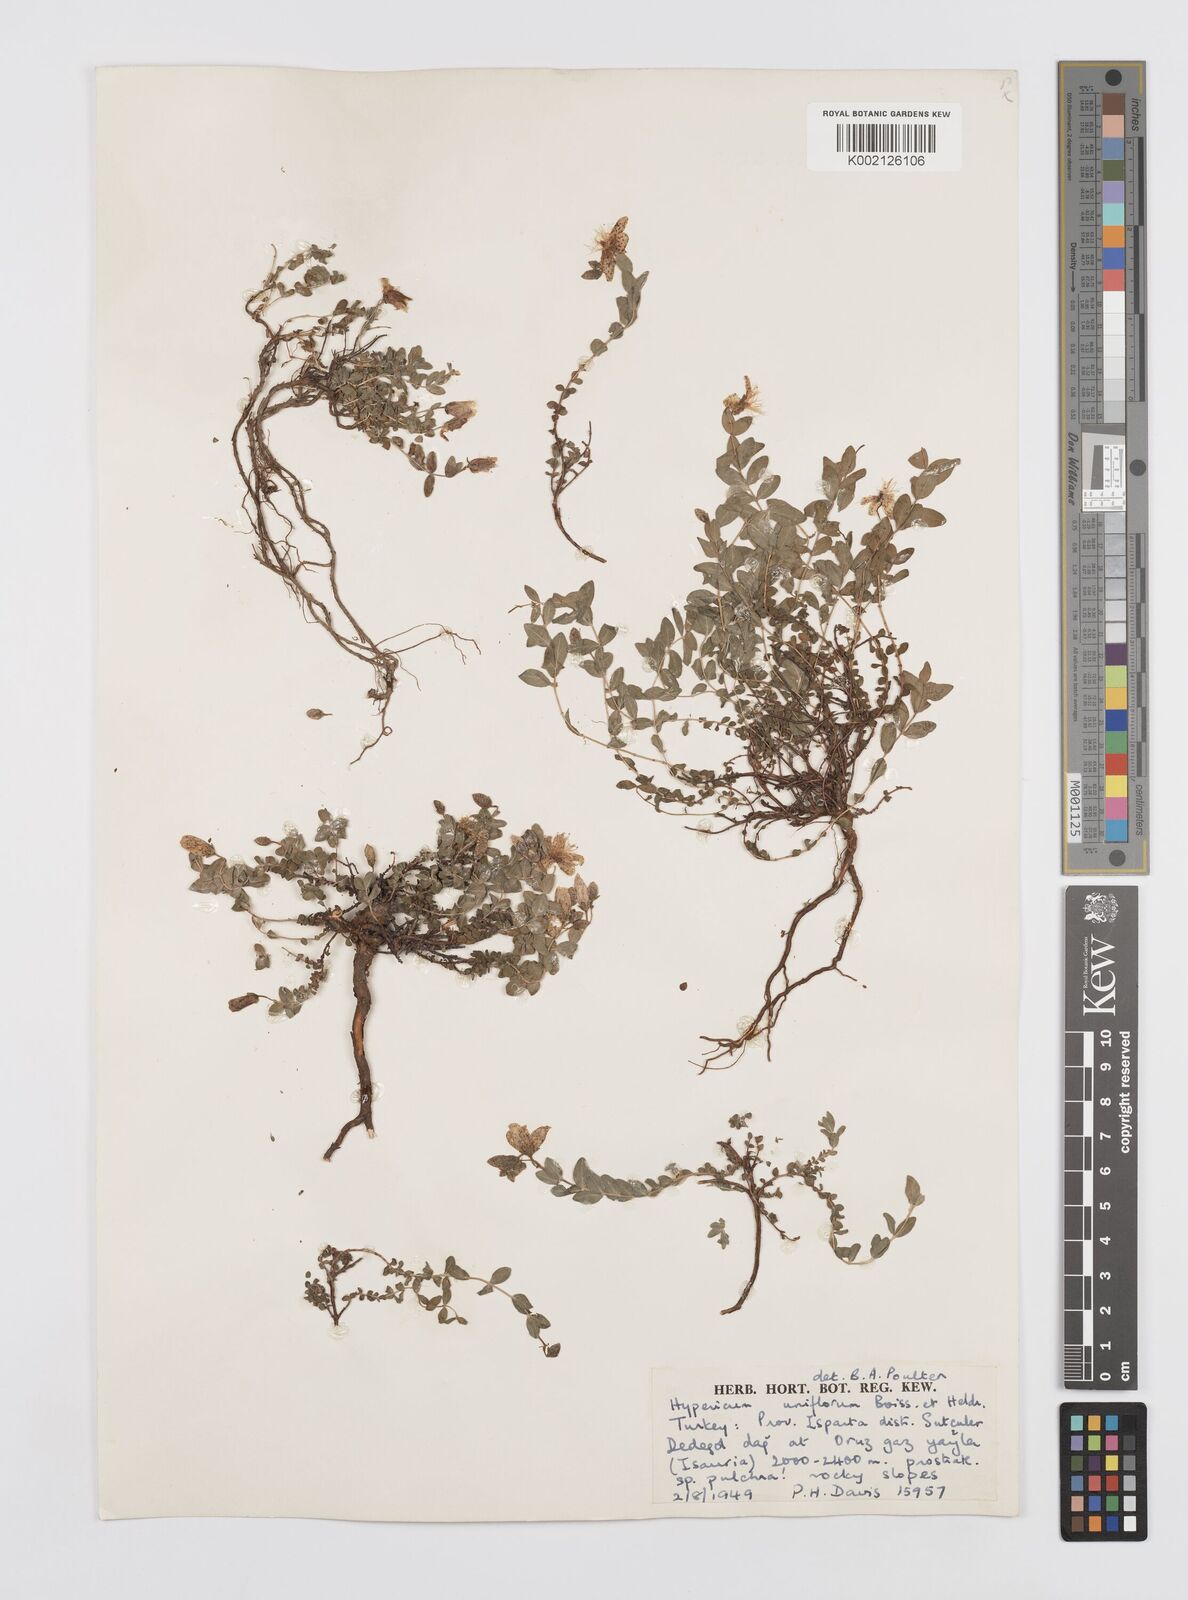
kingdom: Plantae
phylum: Tracheophyta
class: Magnoliopsida
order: Malpighiales
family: Hypericaceae
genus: Hypericum
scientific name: Hypericum uniflorum
